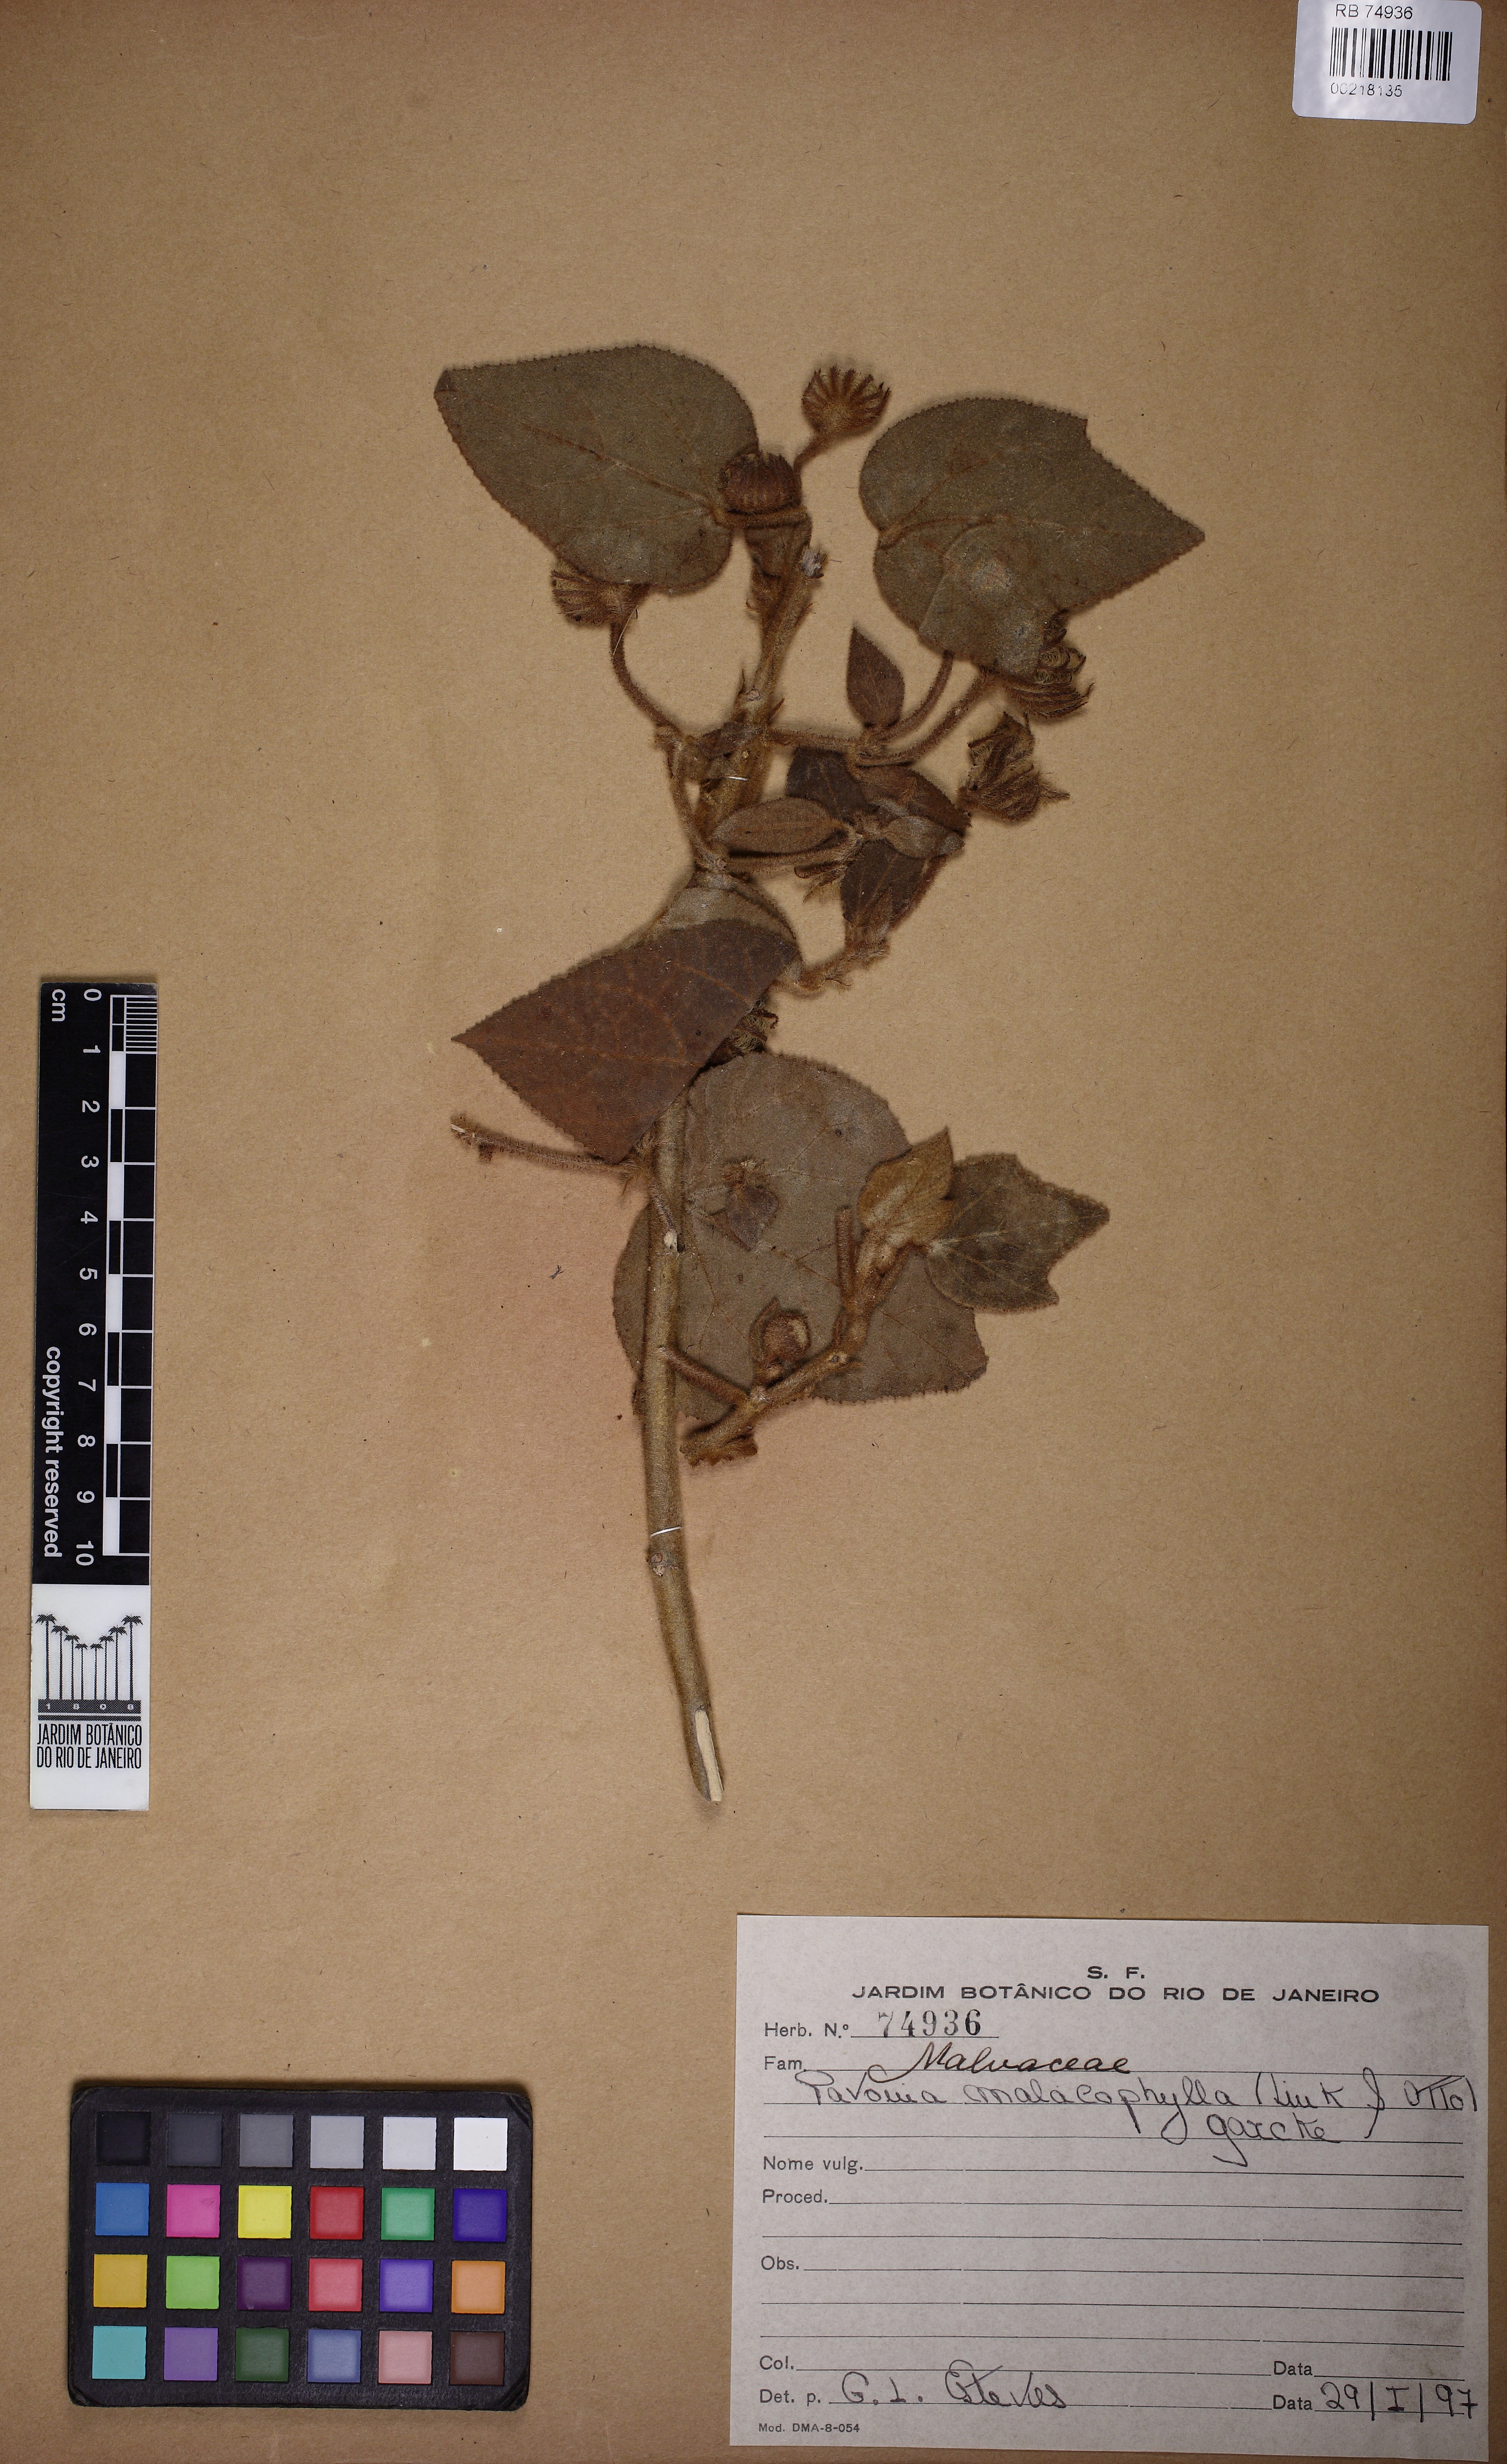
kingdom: Plantae
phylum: Tracheophyta
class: Magnoliopsida
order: Malvales
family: Malvaceae
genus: Pavonia
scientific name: Pavonia malacophylla
